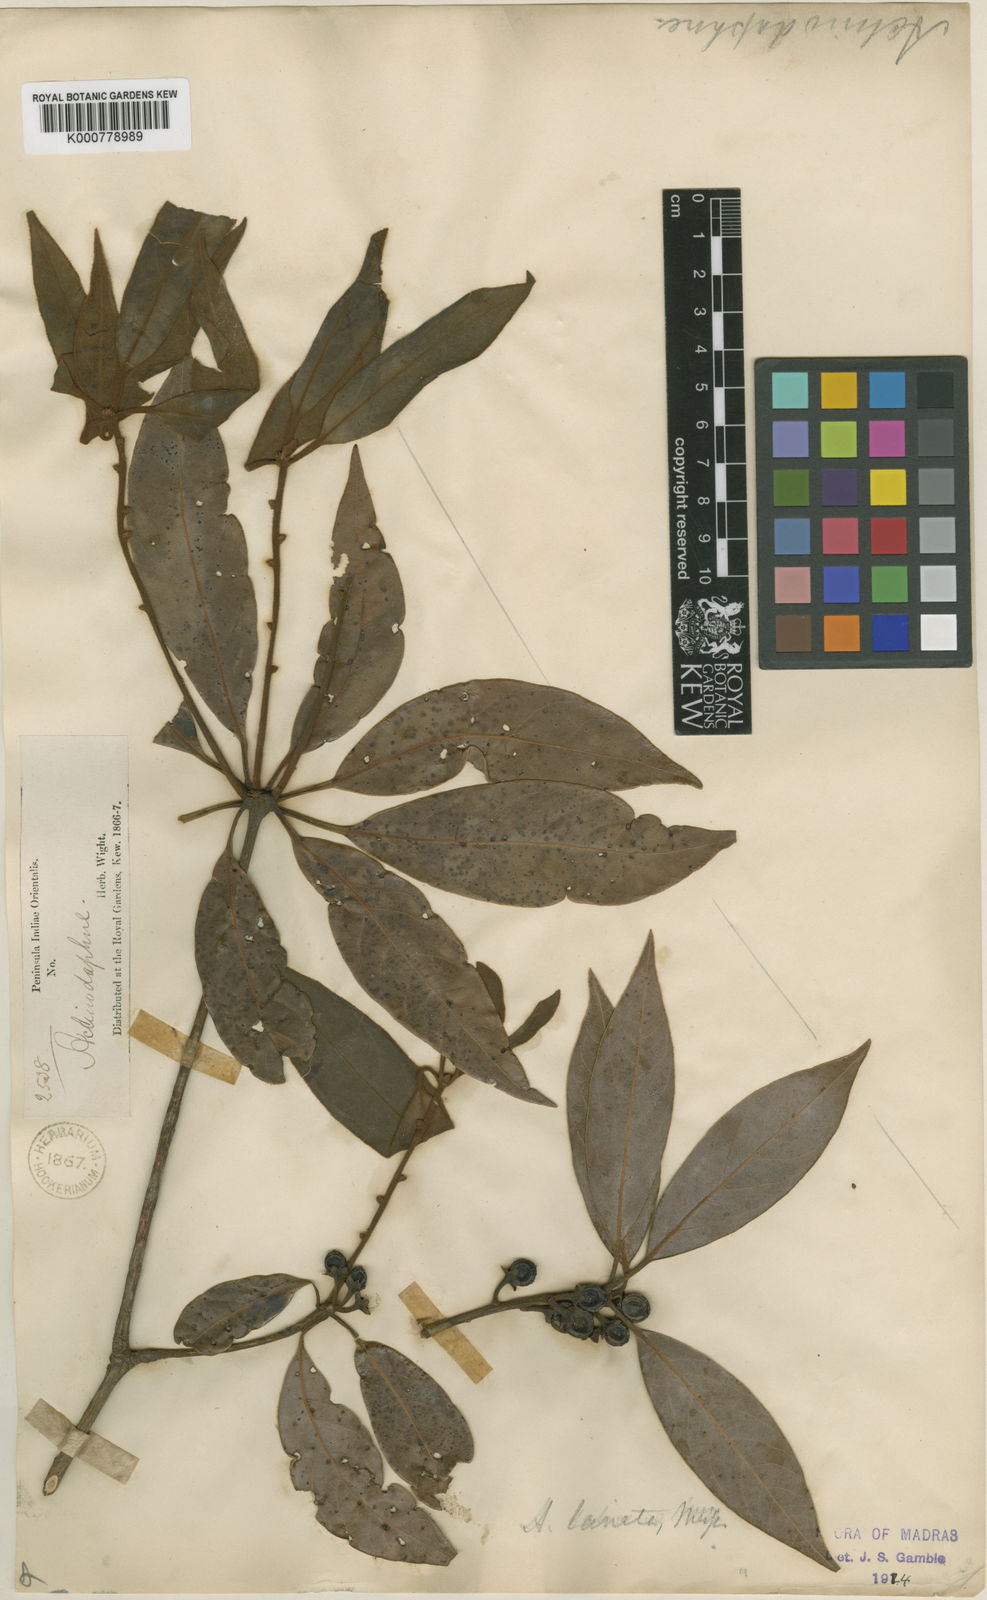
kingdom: Plantae
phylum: Tracheophyta
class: Magnoliopsida
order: Laurales
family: Lauraceae
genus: Actinodaphne
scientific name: Actinodaphne lanata
